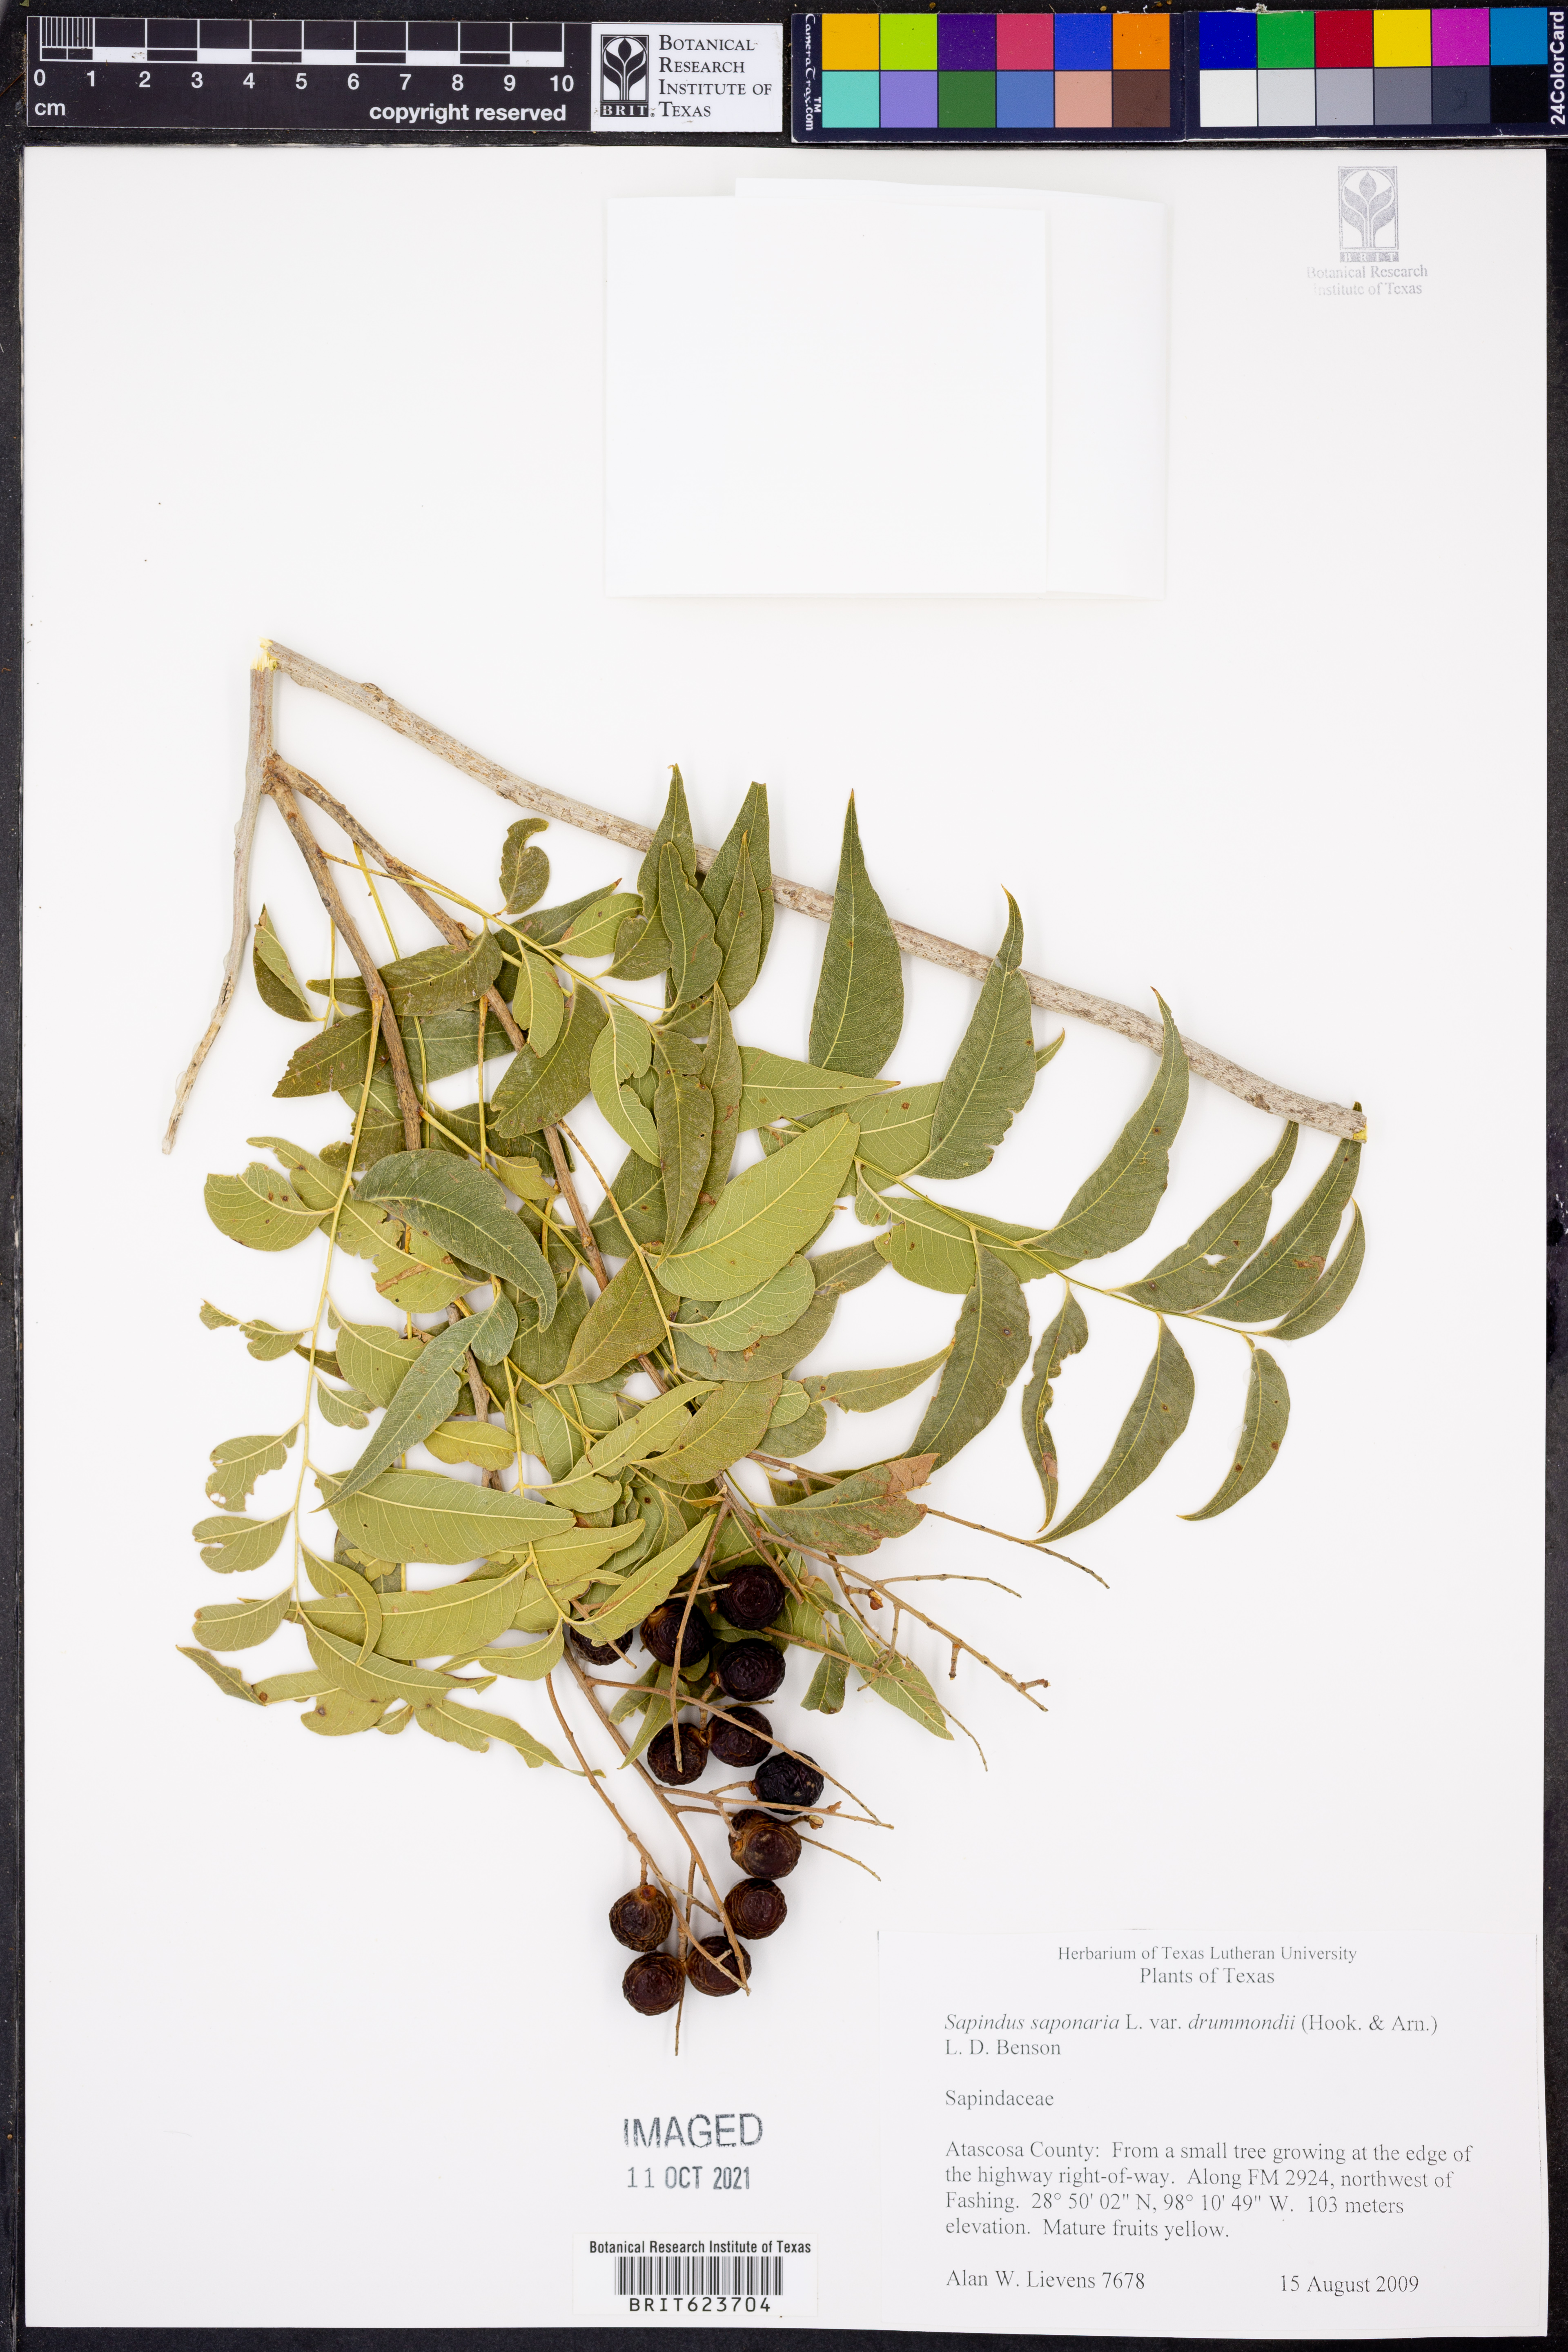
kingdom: Plantae
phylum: Tracheophyta
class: Magnoliopsida
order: Sapindales
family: Sapindaceae
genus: Sapindus
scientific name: Sapindus drummondii
